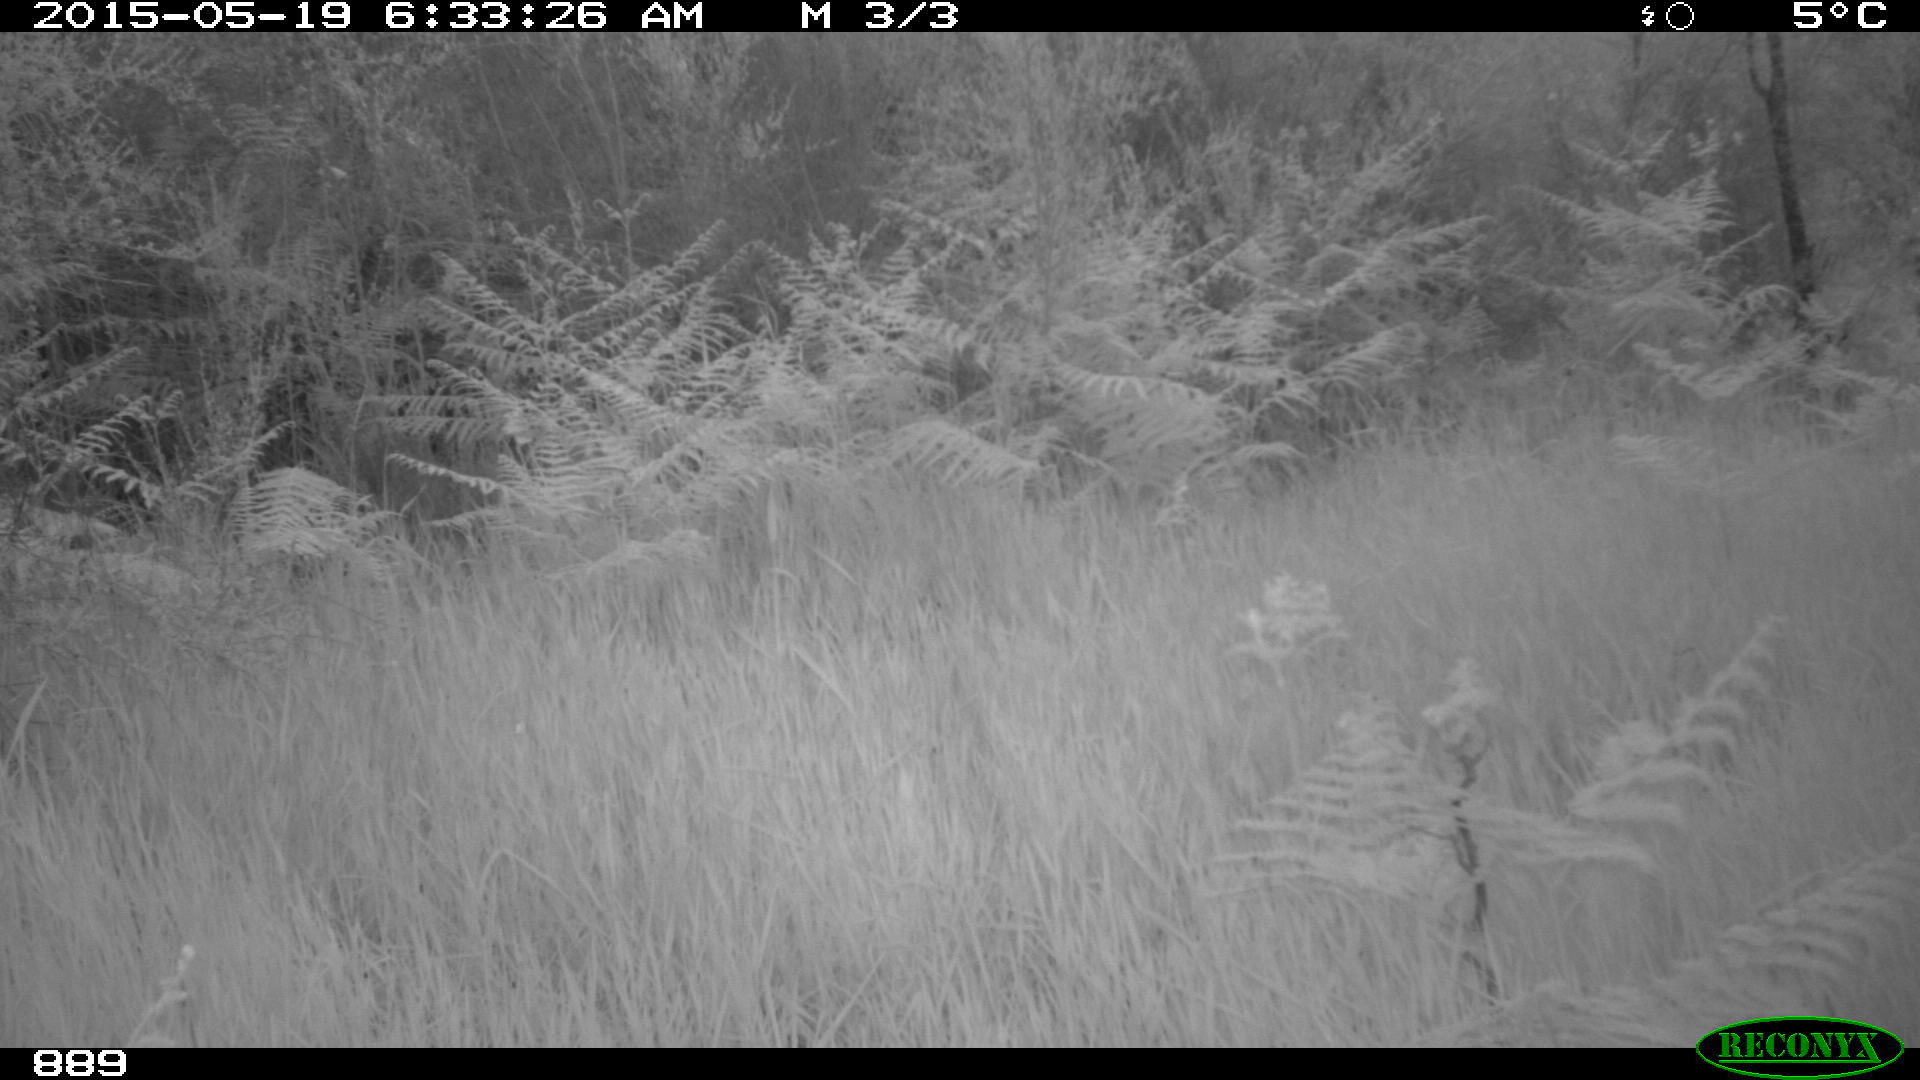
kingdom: Animalia
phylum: Chordata
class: Mammalia
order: Artiodactyla
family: Cervidae
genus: Capreolus
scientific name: Capreolus capreolus
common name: Western roe deer
